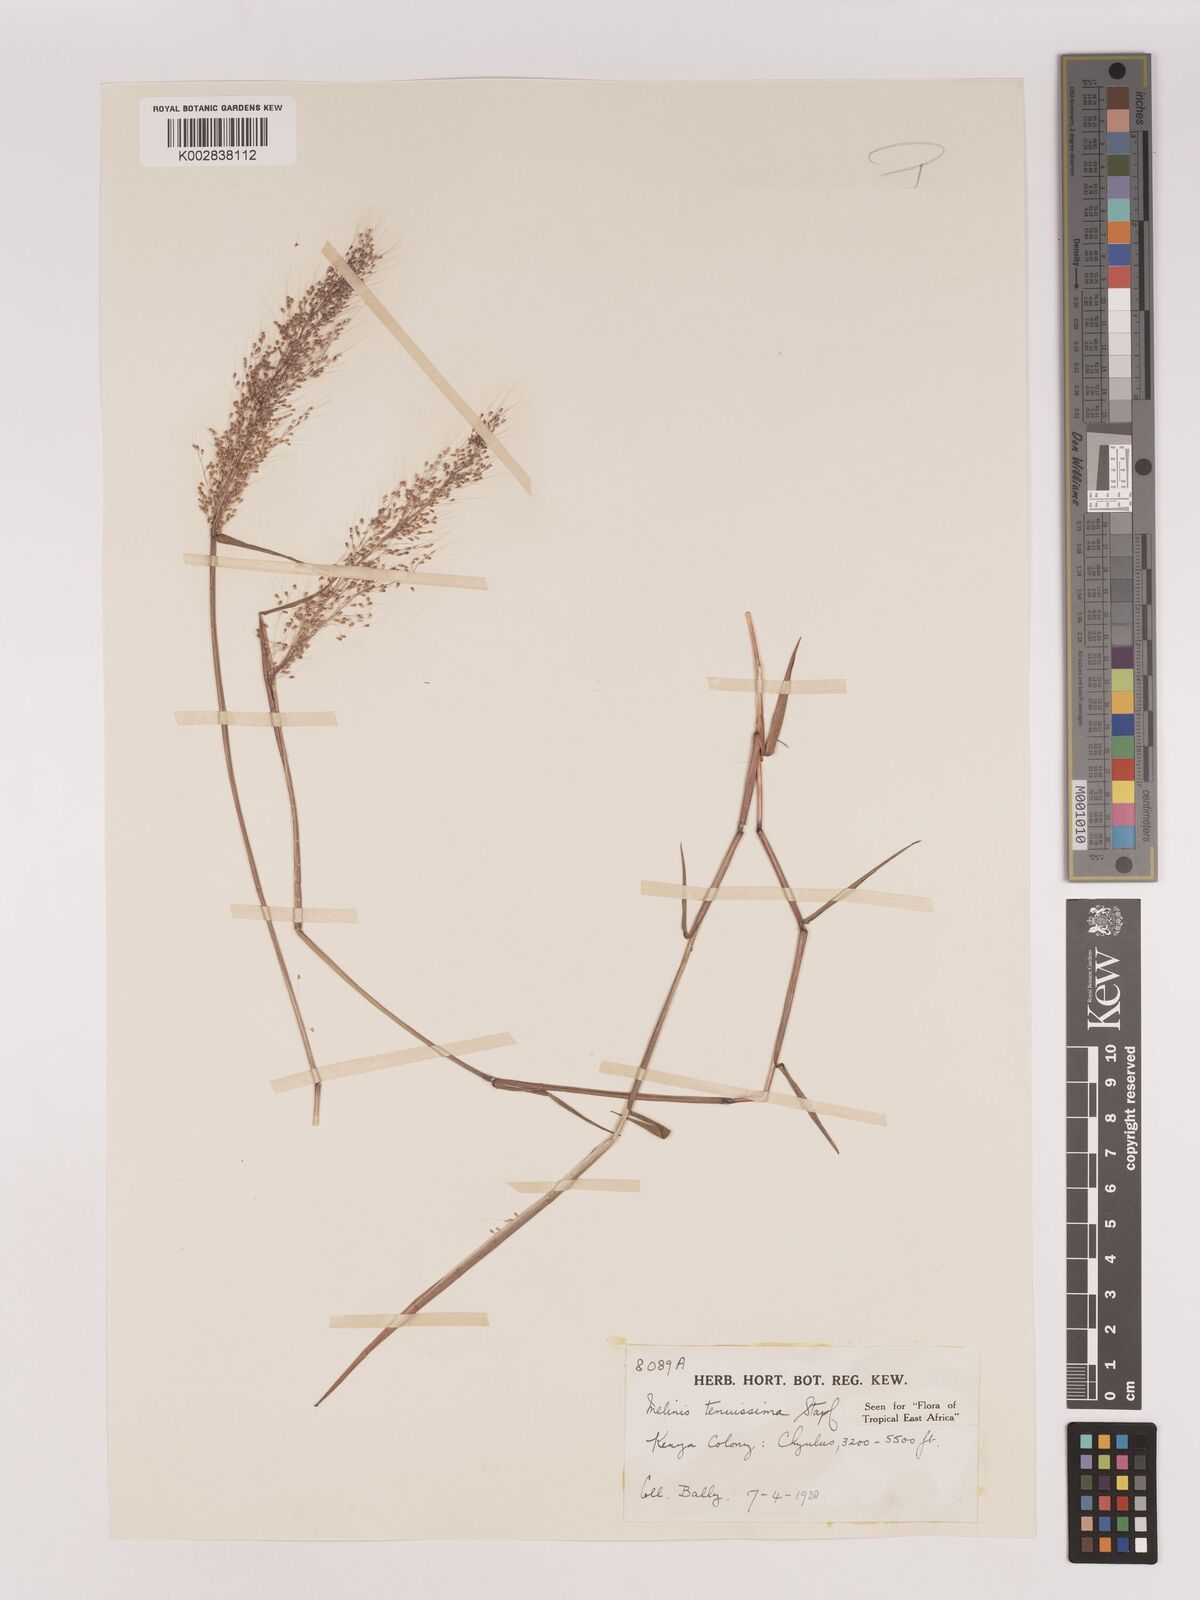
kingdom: Plantae
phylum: Tracheophyta
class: Liliopsida
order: Poales
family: Poaceae
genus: Melinis
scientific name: Melinis tenuissima
